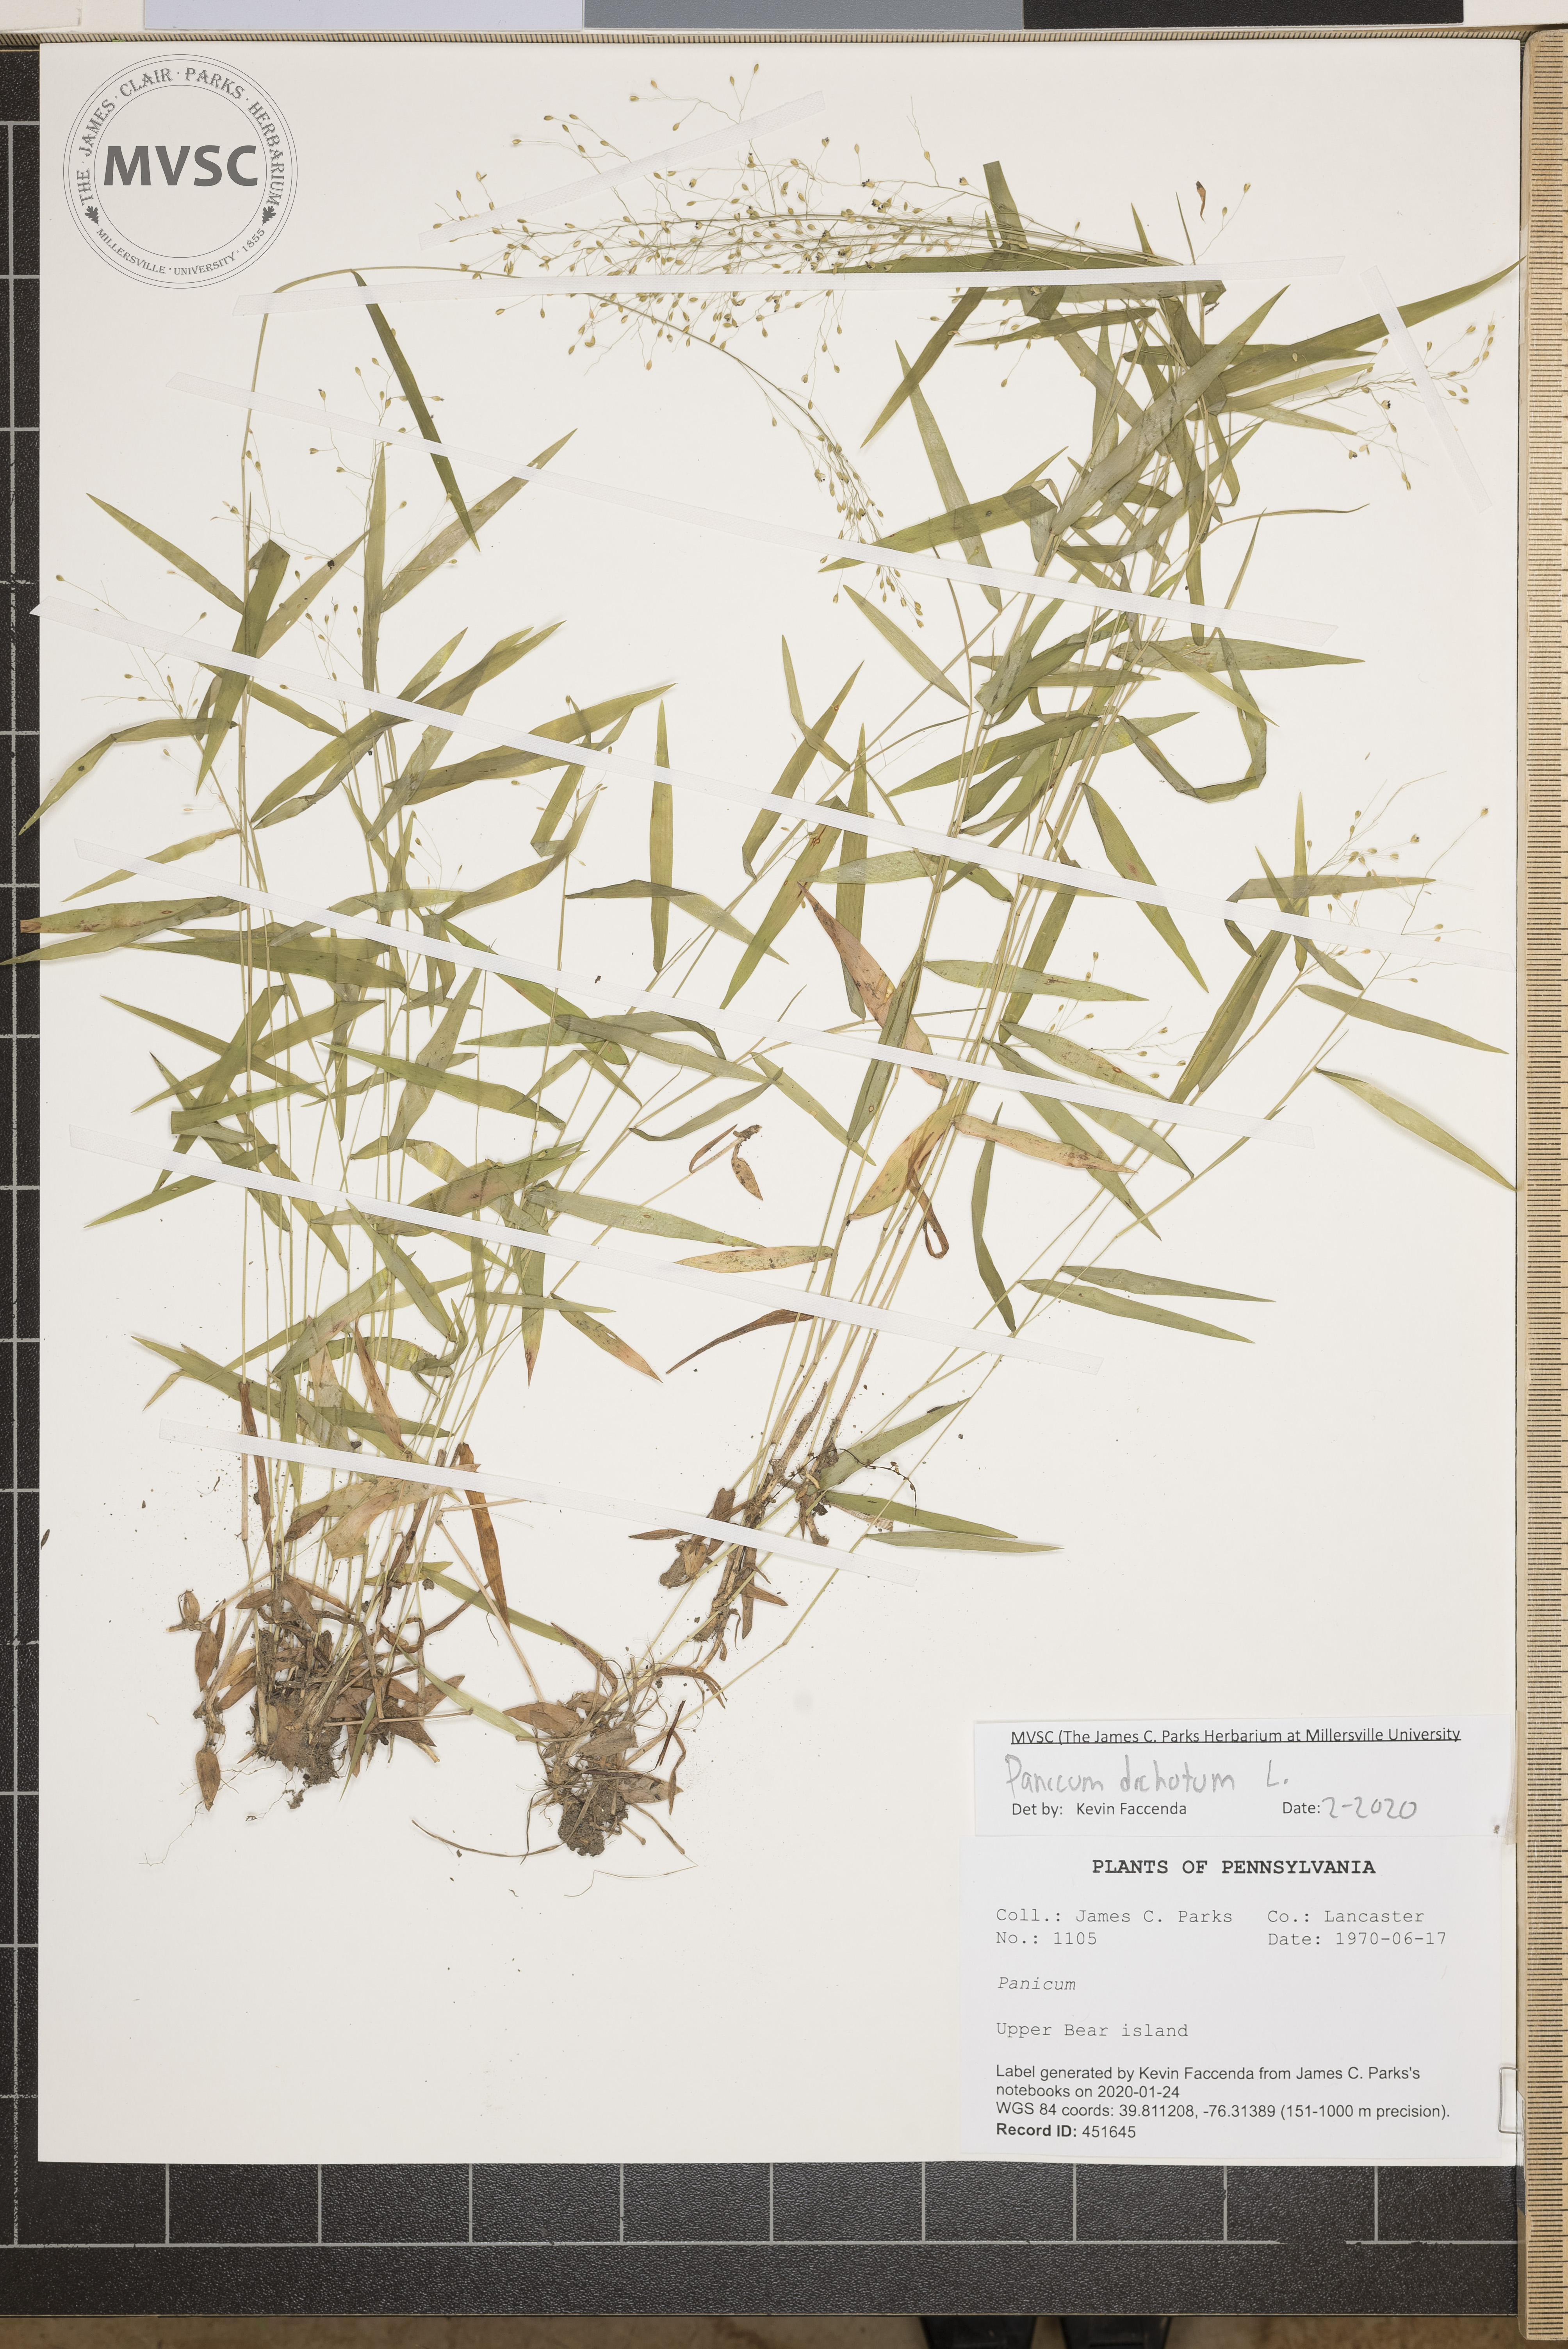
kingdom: Plantae
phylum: Tracheophyta
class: Liliopsida
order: Poales
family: Poaceae
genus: Dichanthelium
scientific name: Dichanthelium dichotomum
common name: Cypress panicgrass
